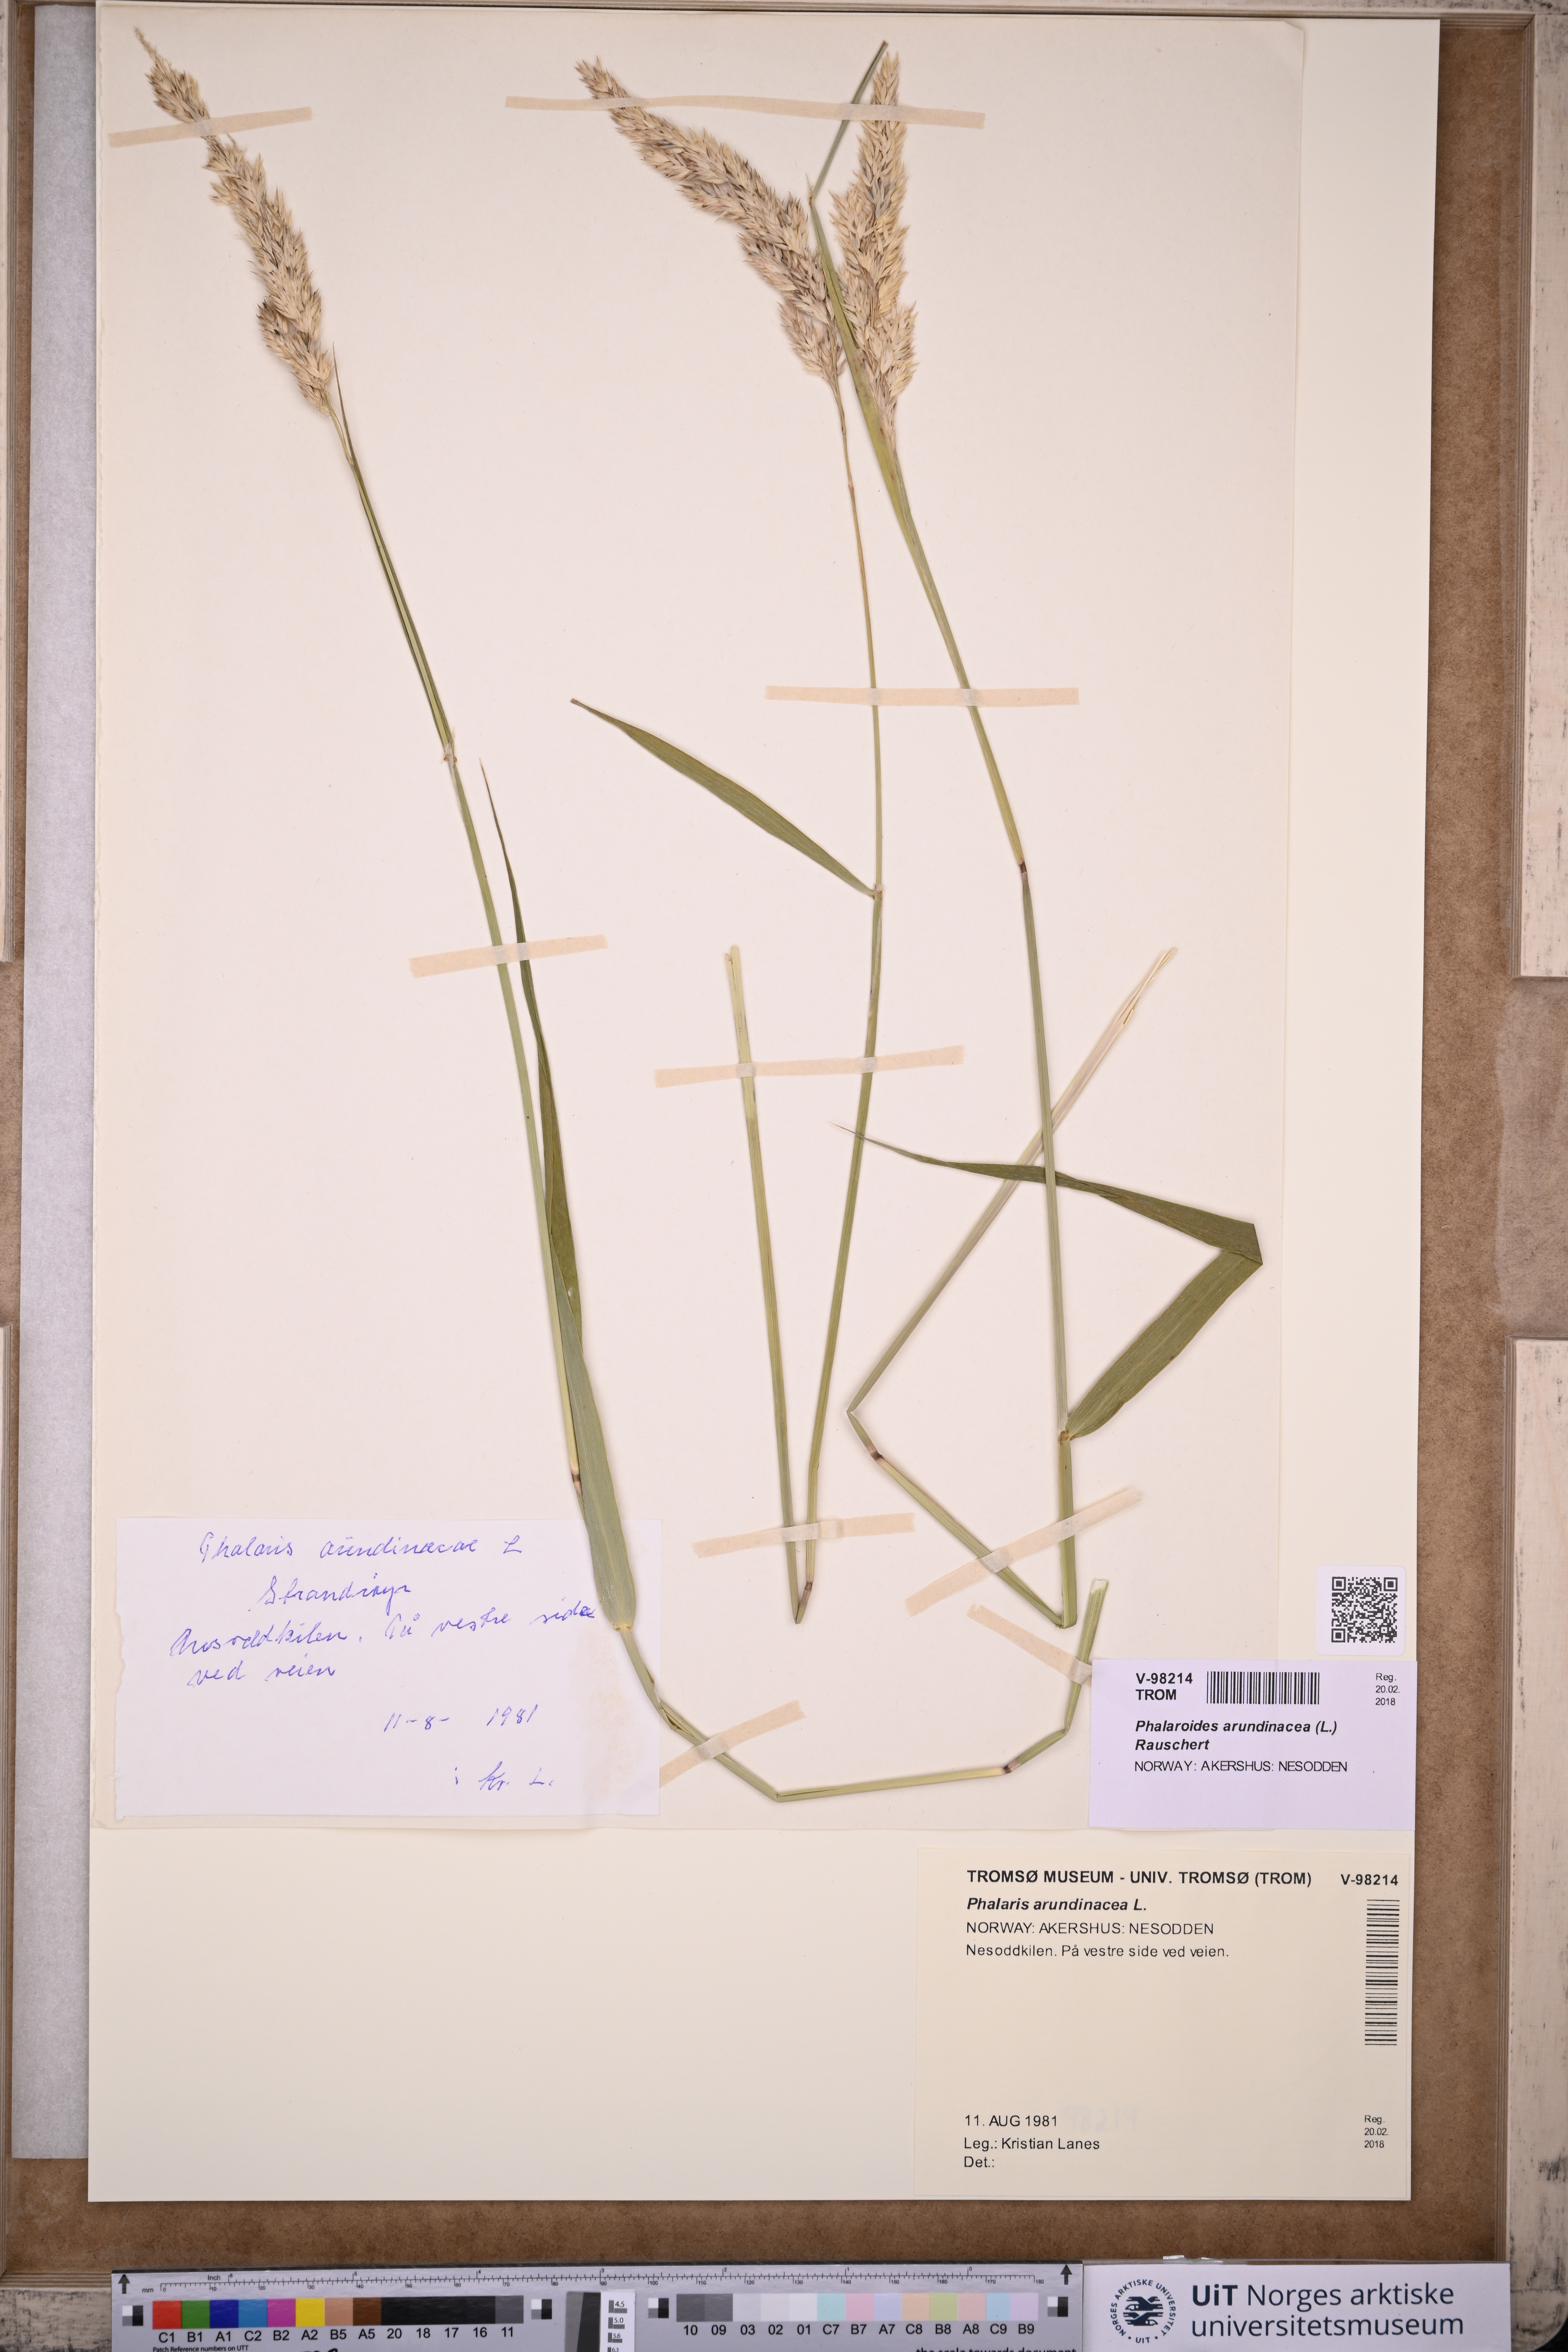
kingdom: Plantae
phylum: Tracheophyta
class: Liliopsida
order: Poales
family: Poaceae
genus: Phalaris
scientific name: Phalaris arundinacea
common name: Reed canary-grass
